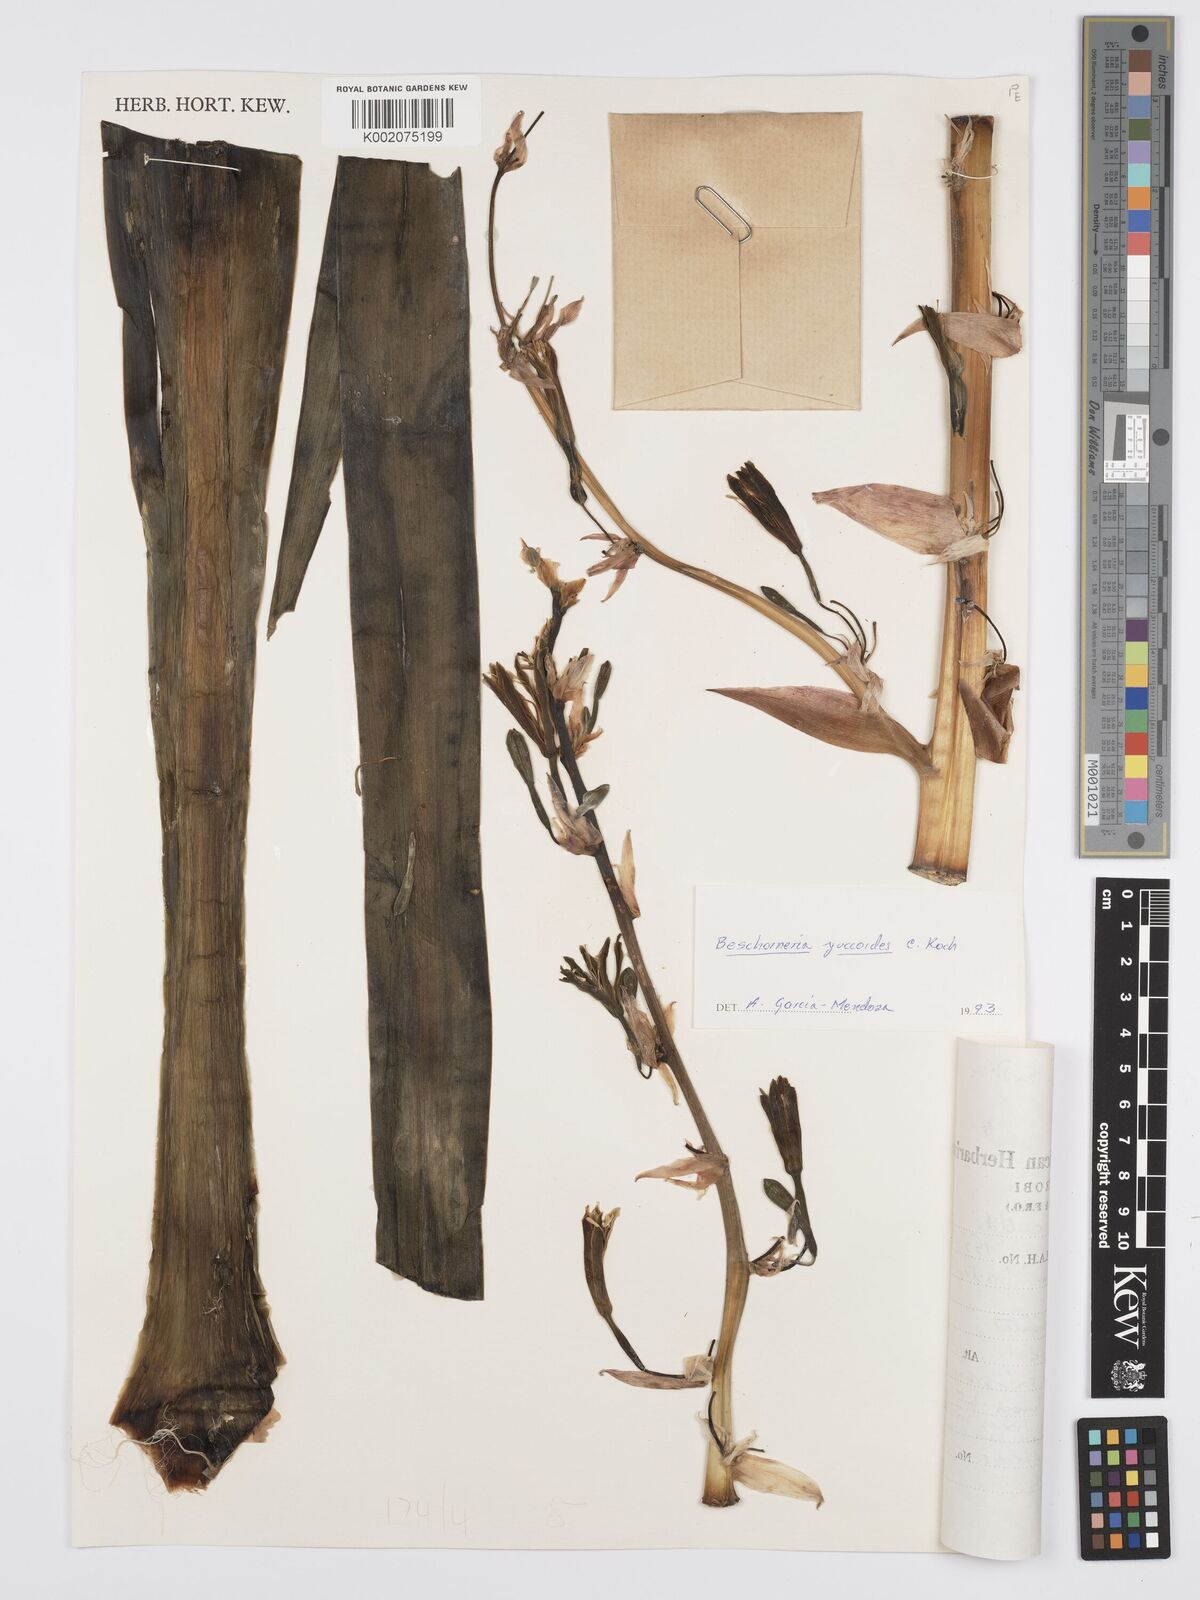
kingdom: Plantae
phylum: Tracheophyta
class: Liliopsida
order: Asparagales
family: Asparagaceae
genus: Beschorneria
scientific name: Beschorneria yuccoides
